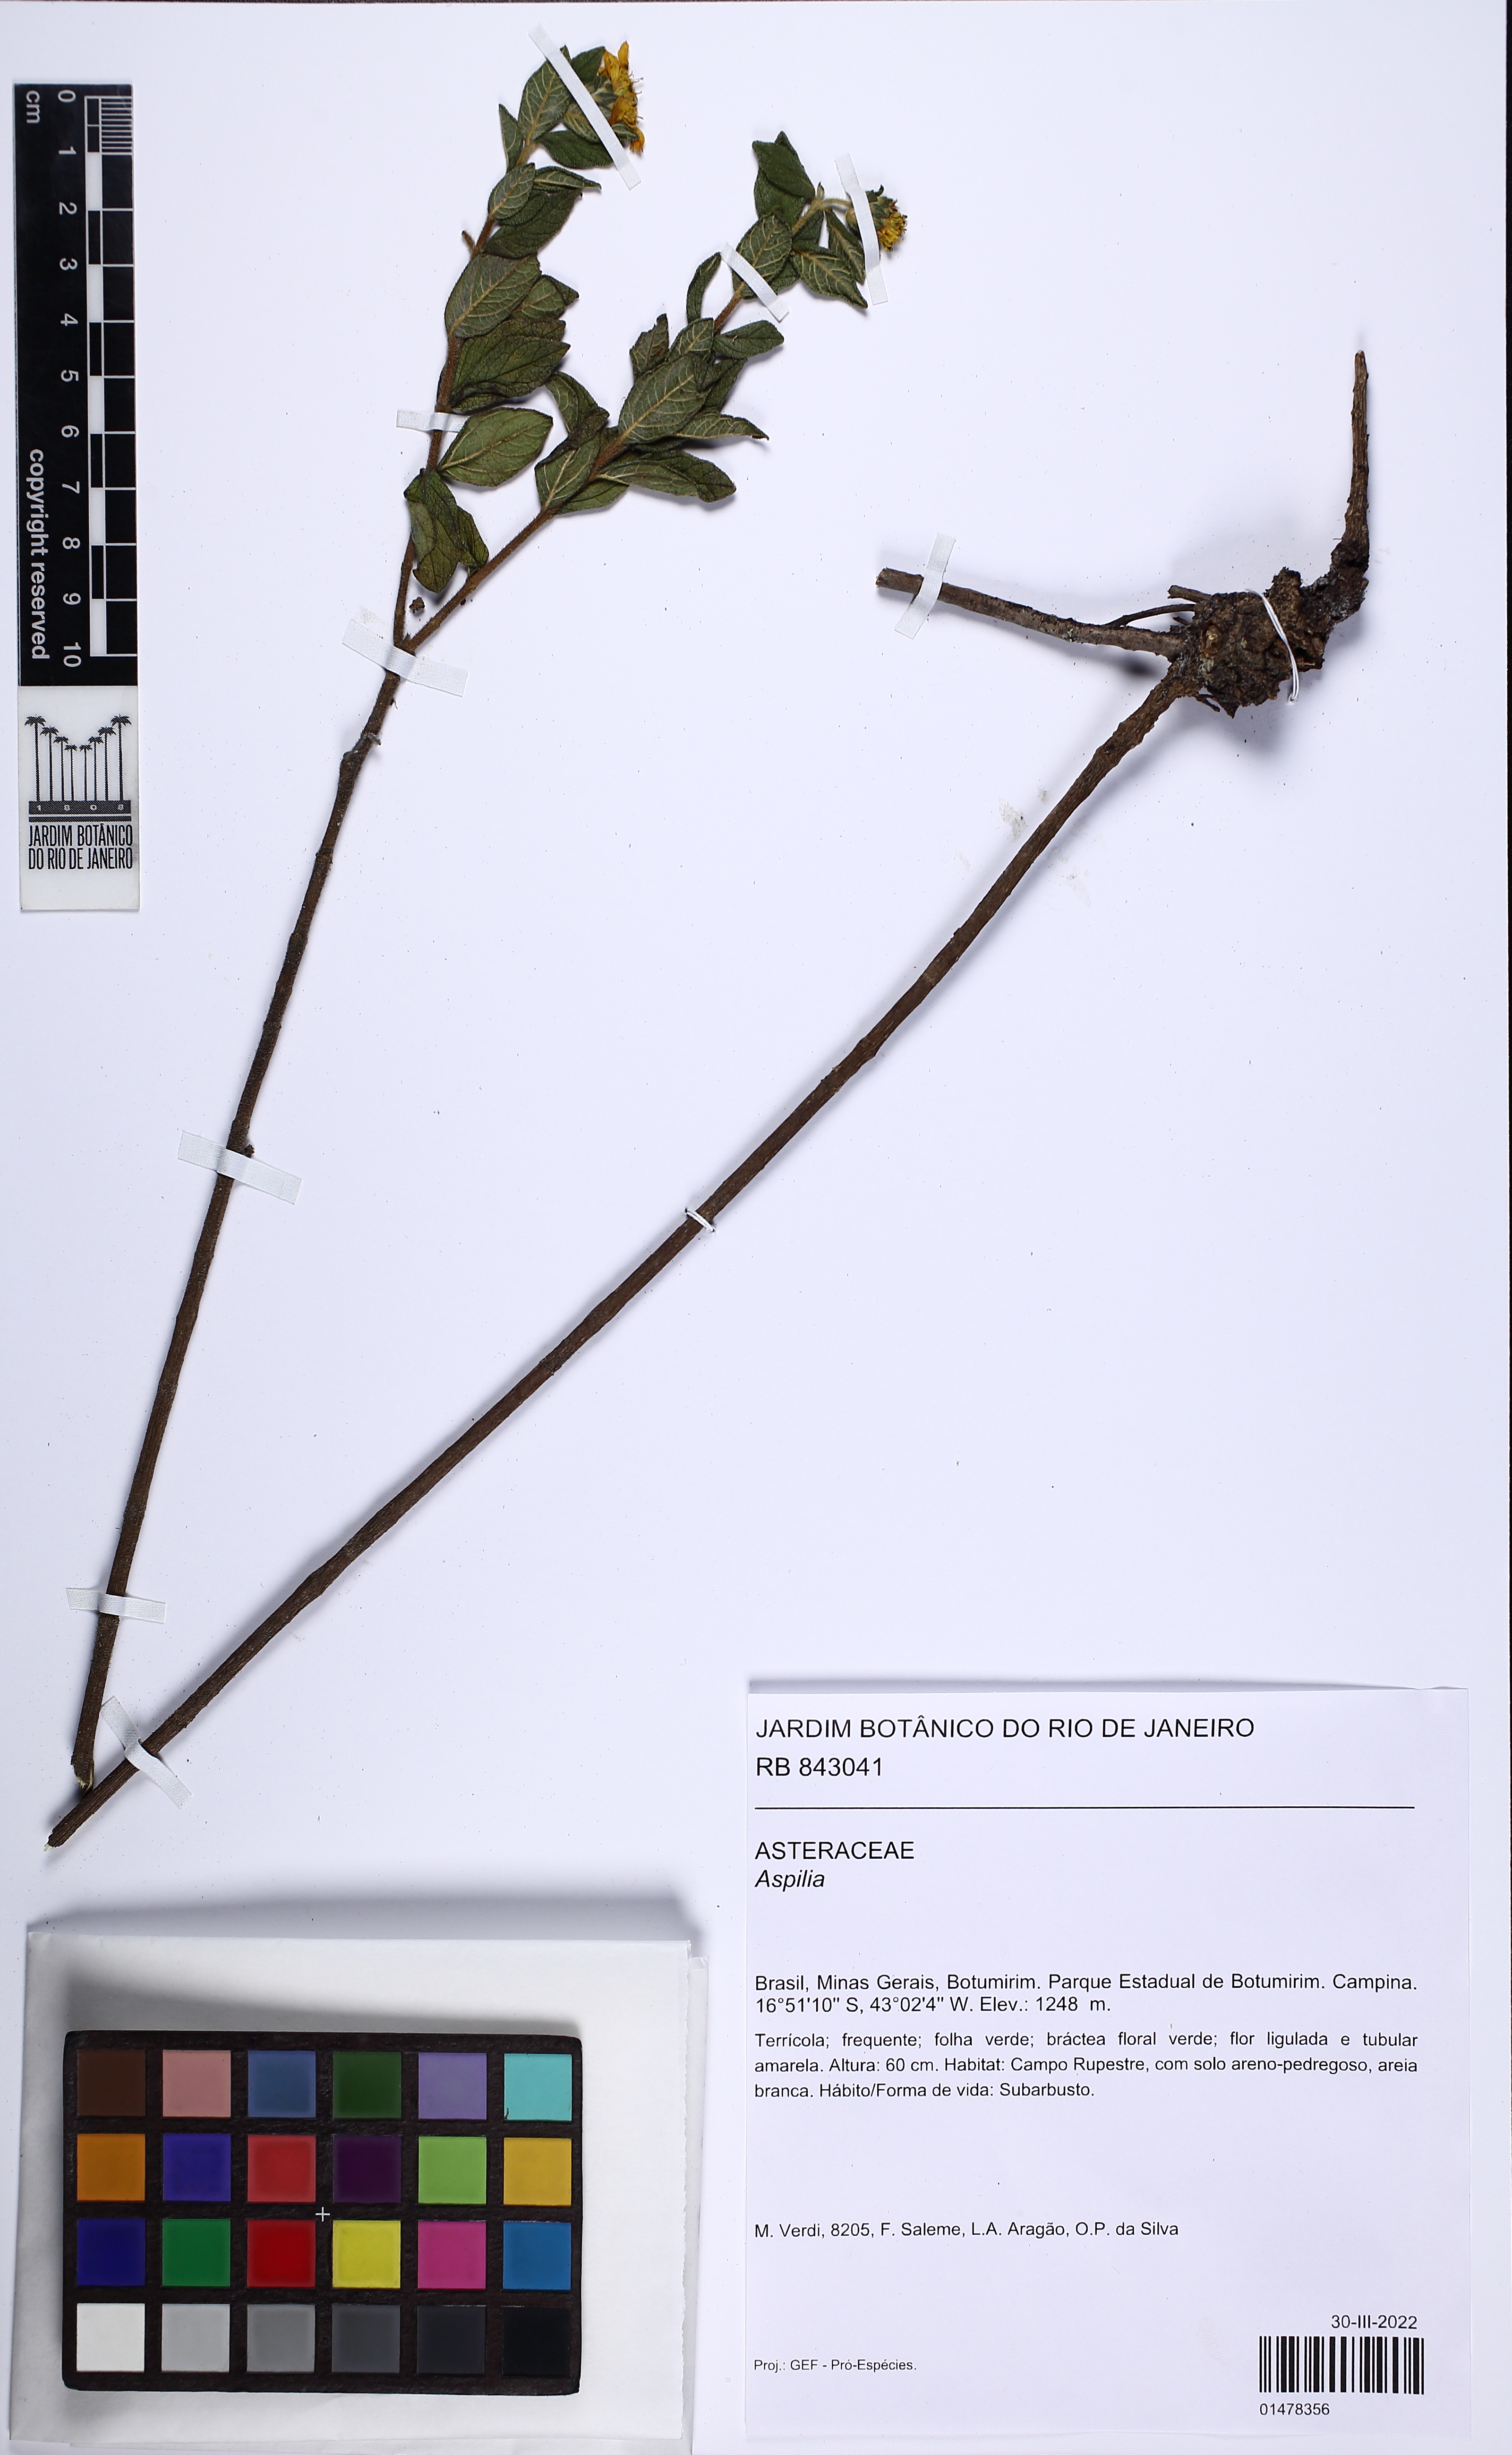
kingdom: Plantae
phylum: Tracheophyta
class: Magnoliopsida
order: Asterales
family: Asteraceae
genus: Aspilia
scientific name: Aspilia
